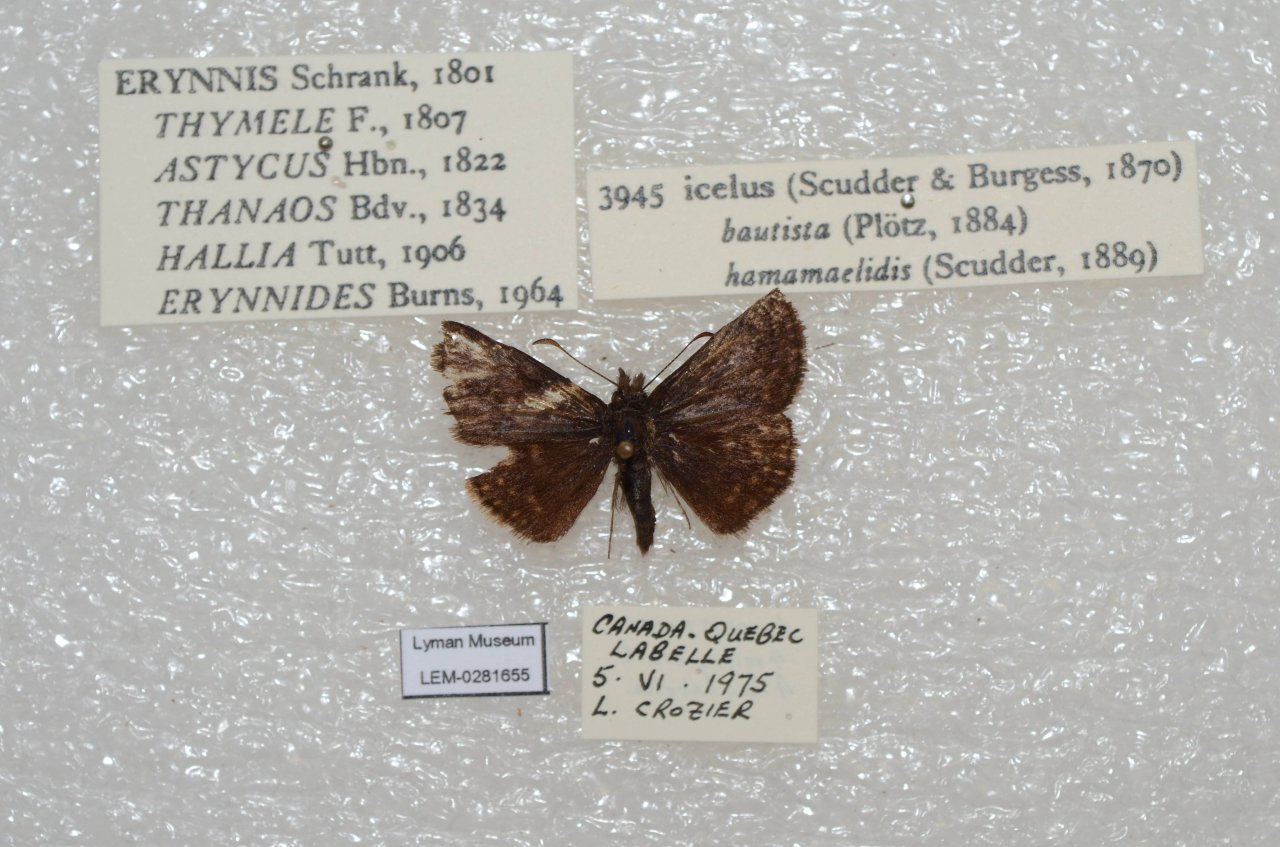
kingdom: Animalia
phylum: Arthropoda
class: Insecta
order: Lepidoptera
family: Hesperiidae
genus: Erynnis
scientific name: Erynnis icelus
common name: Dreamy Duskywing
